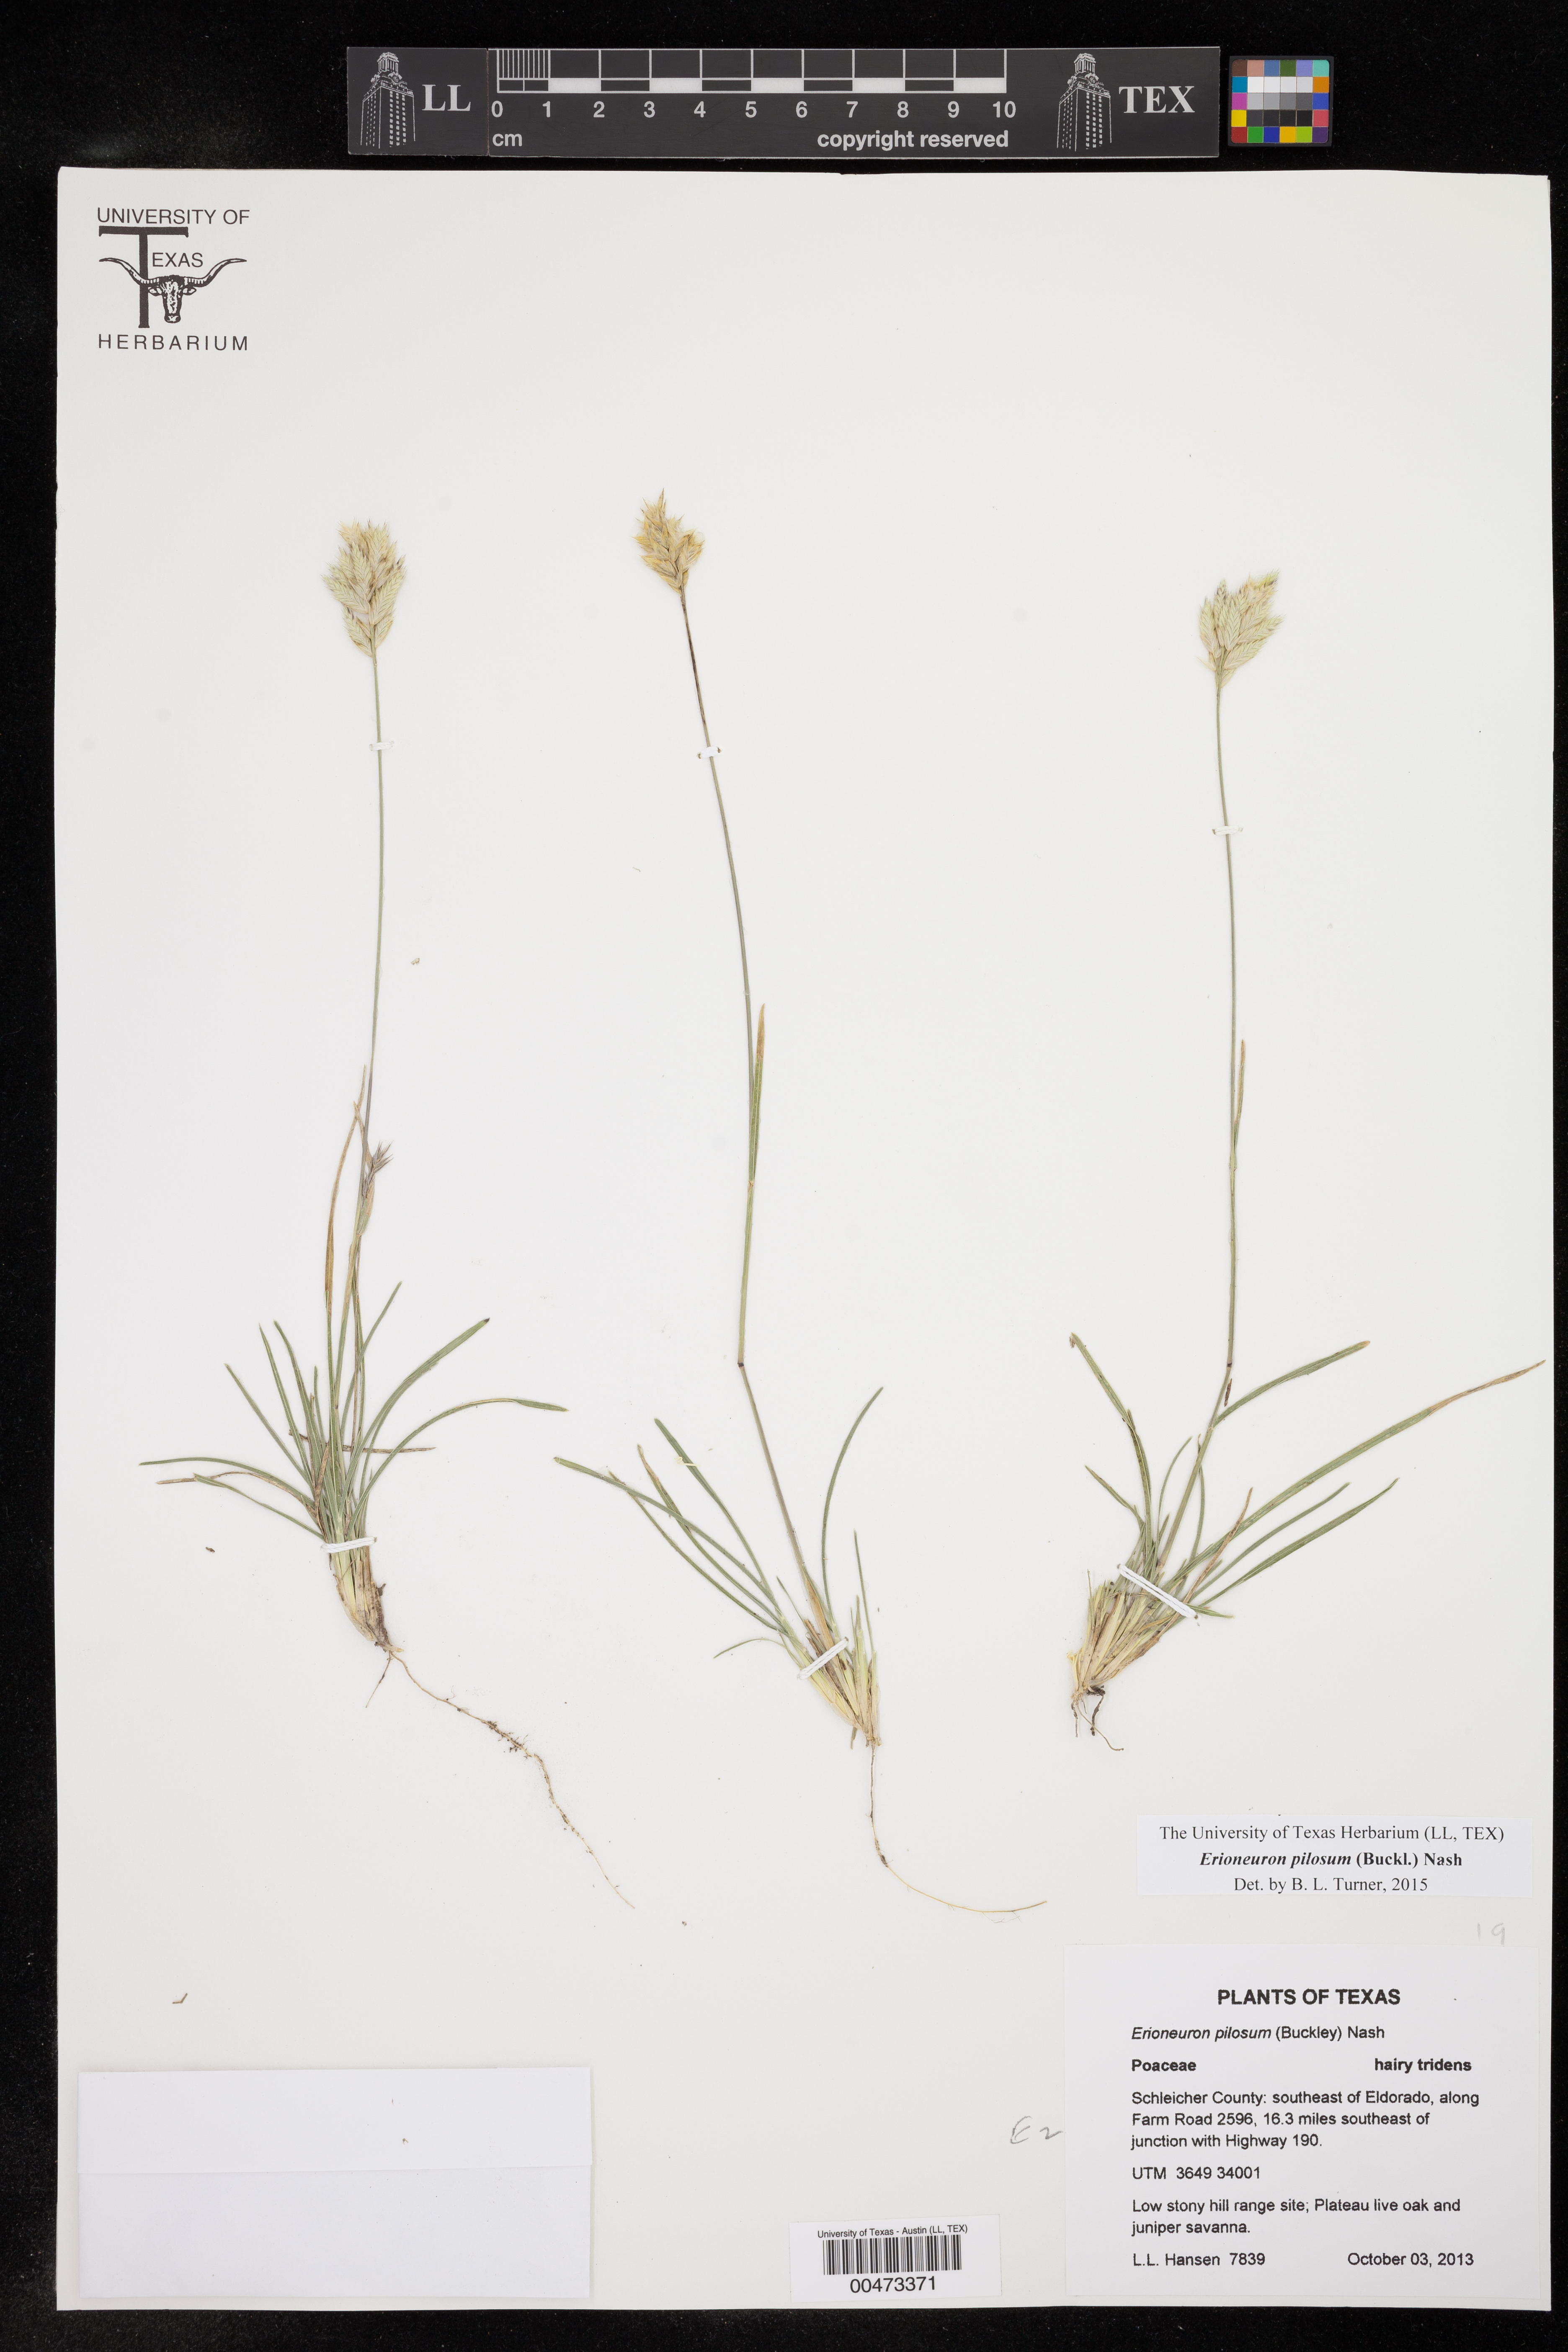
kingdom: Plantae
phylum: Tracheophyta
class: Liliopsida
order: Poales
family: Poaceae
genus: Erioneuron
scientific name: Erioneuron pilosum
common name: Hairy woolly grass
